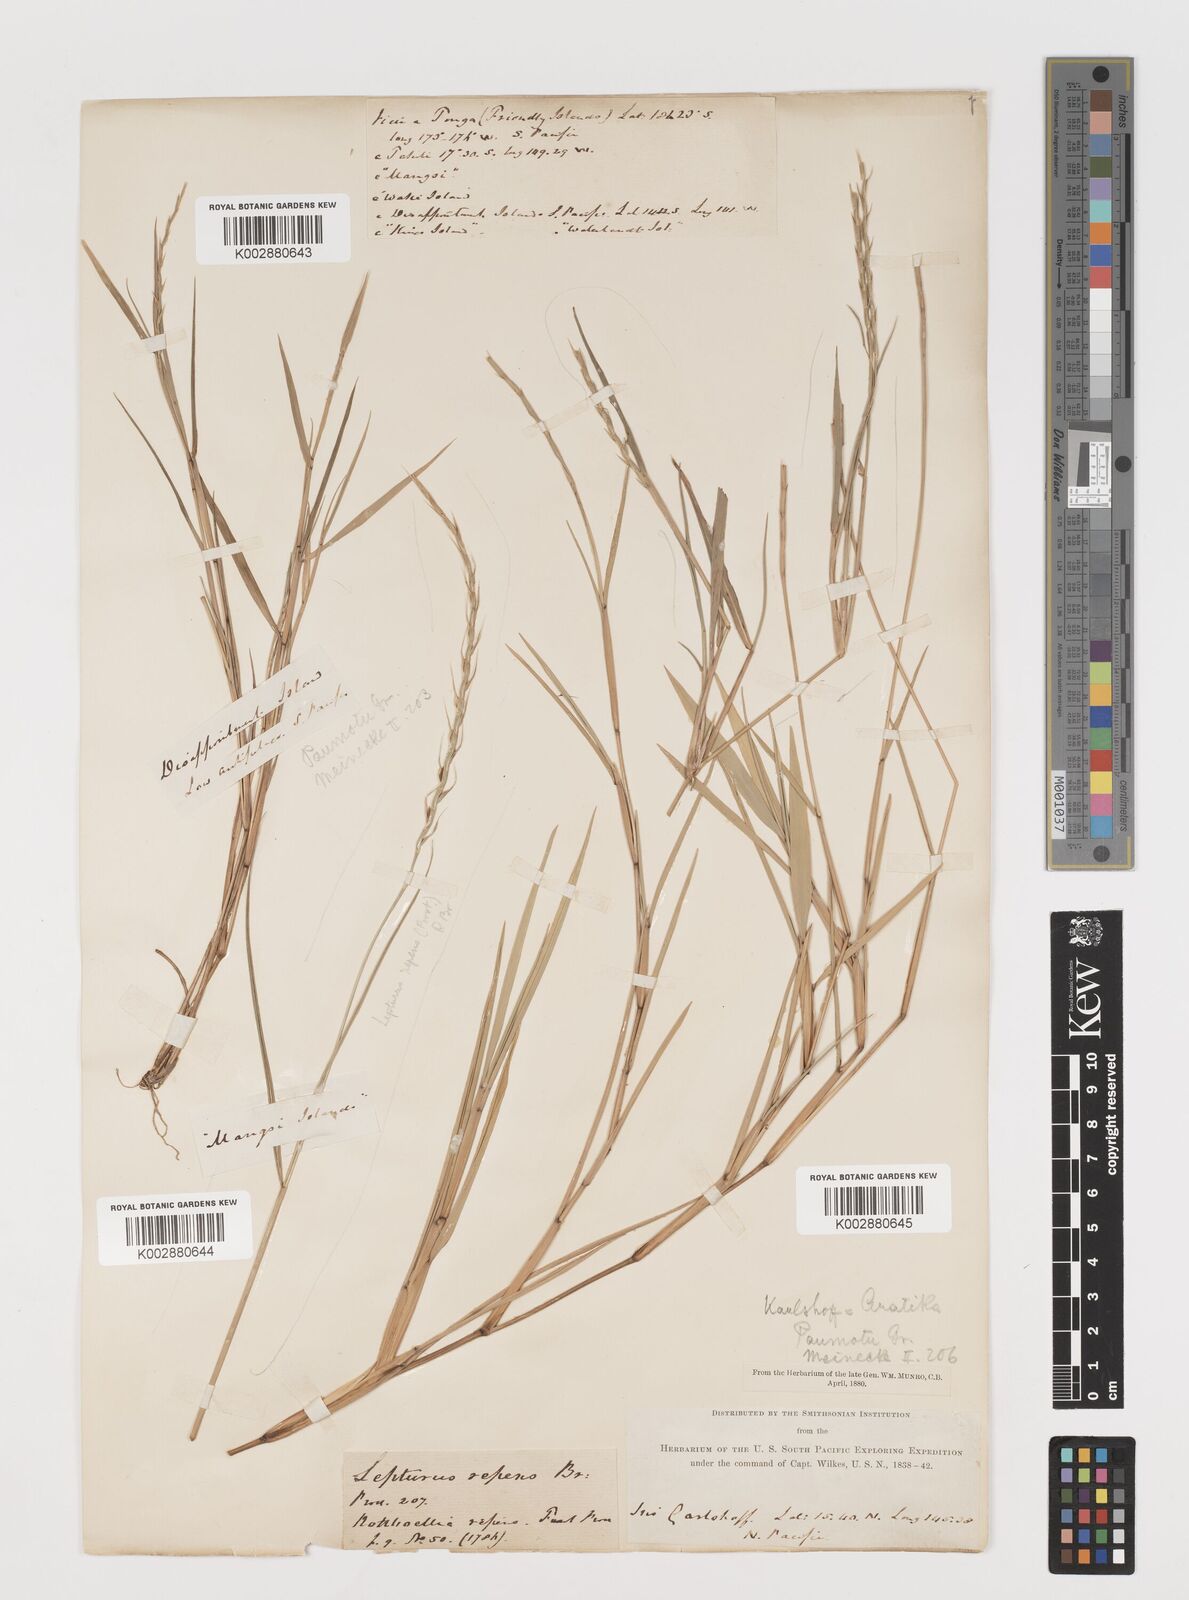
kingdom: Plantae
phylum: Tracheophyta
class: Liliopsida
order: Poales
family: Poaceae
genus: Lepturus
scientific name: Lepturus
